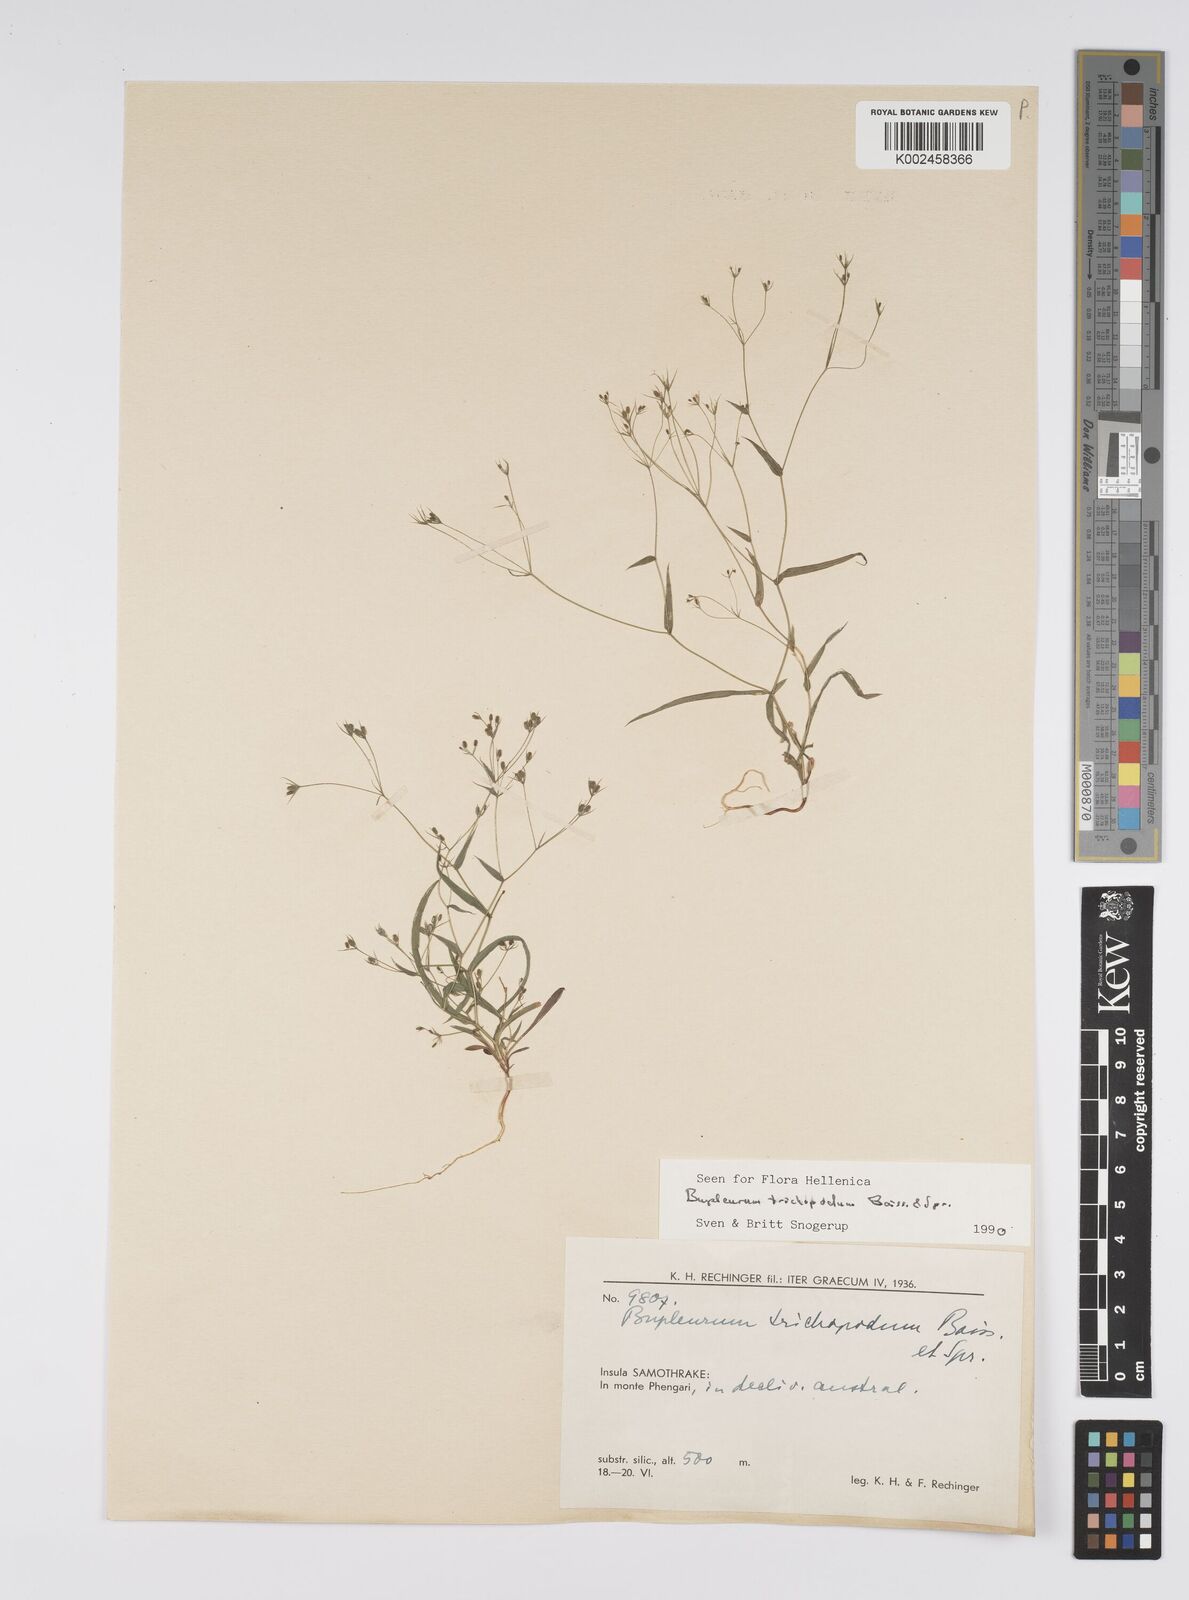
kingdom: Plantae
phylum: Tracheophyta
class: Magnoliopsida
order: Apiales
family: Apiaceae
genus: Bupleurum
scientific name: Bupleurum trichopodum
